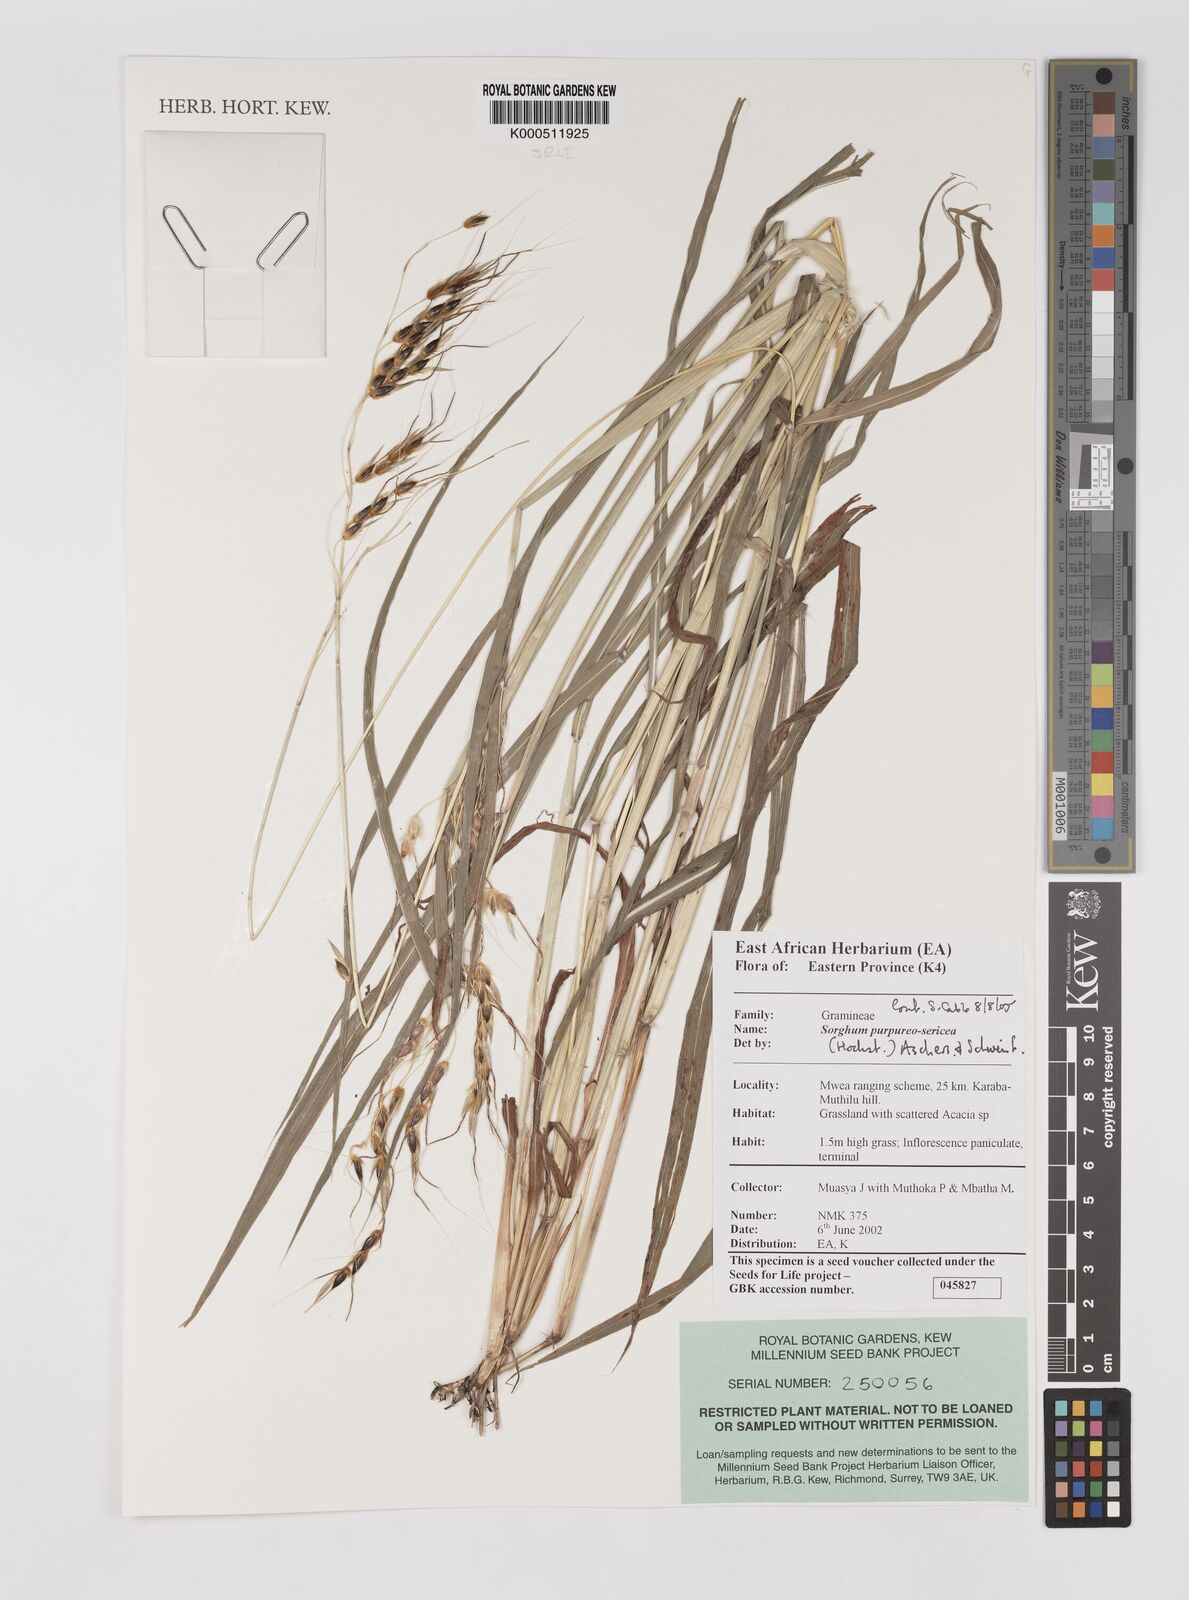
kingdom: Plantae
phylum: Tracheophyta
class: Liliopsida
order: Poales
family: Poaceae
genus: Sarga
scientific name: Sarga purpureosericea
